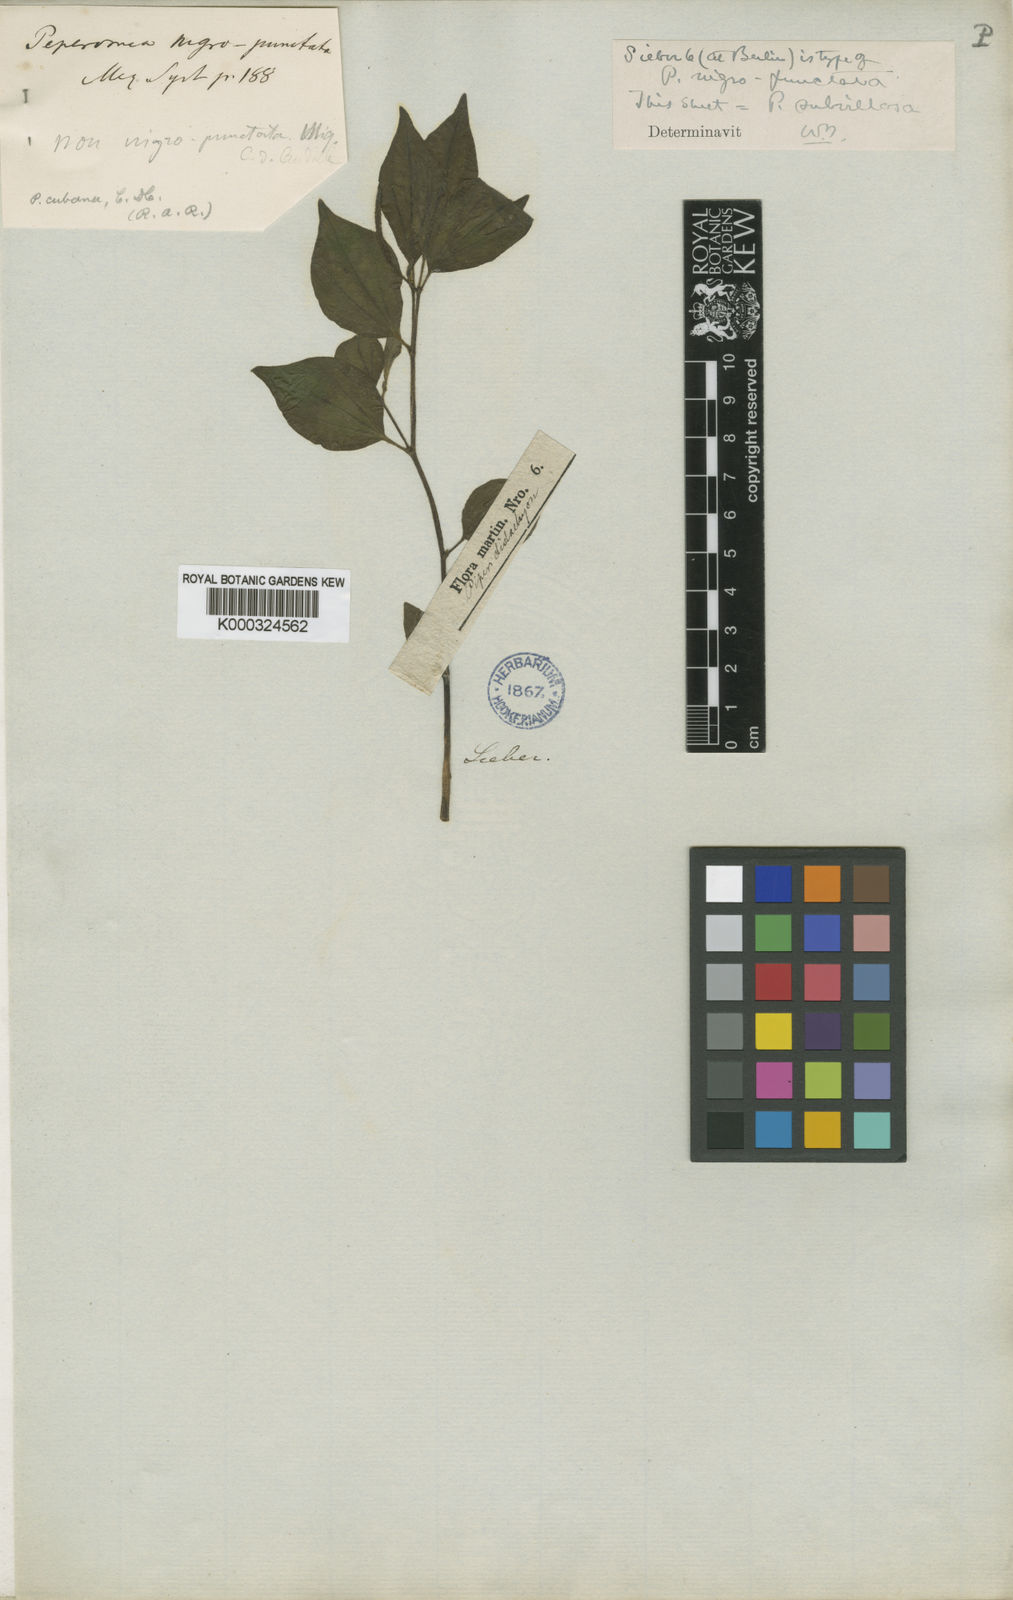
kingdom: Plantae
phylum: Tracheophyta
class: Magnoliopsida
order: Piperales
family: Piperaceae
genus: Peperomia
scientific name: Peperomia
